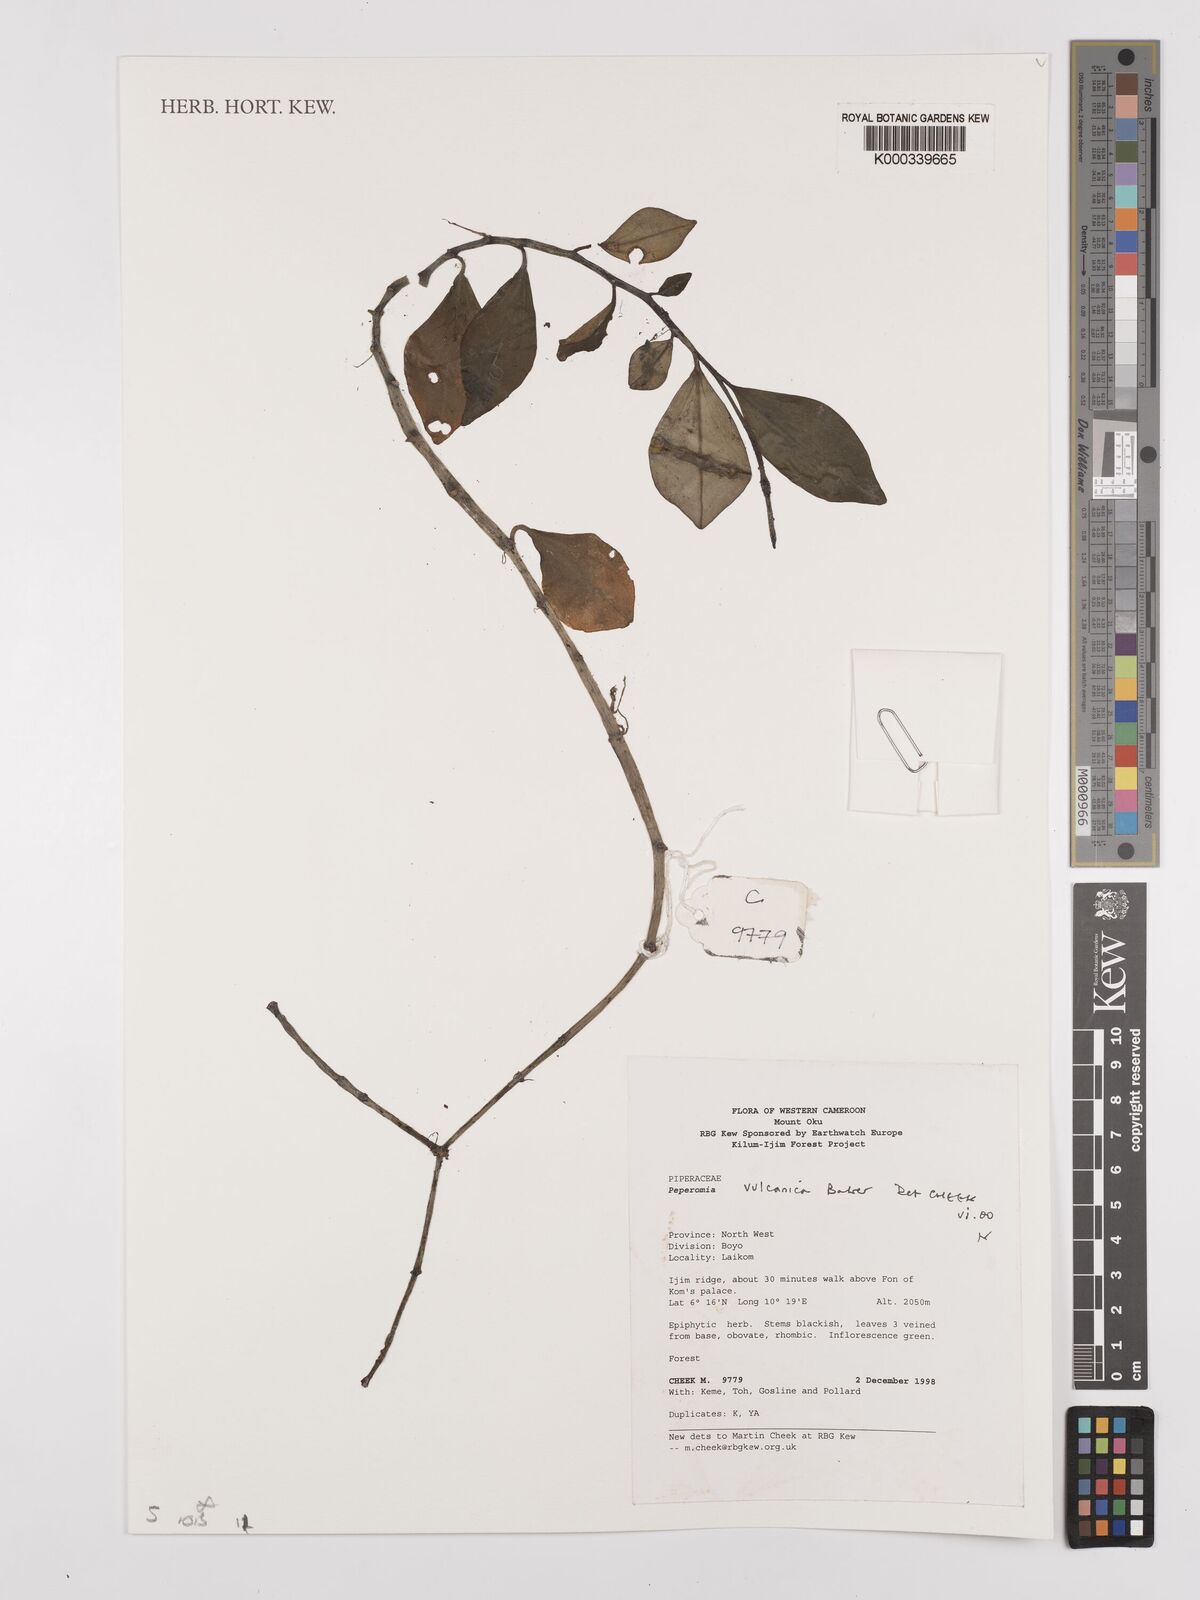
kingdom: Plantae
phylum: Tracheophyta
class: Magnoliopsida
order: Piperales
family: Piperaceae
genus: Peperomia
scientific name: Peperomia vulcanica
